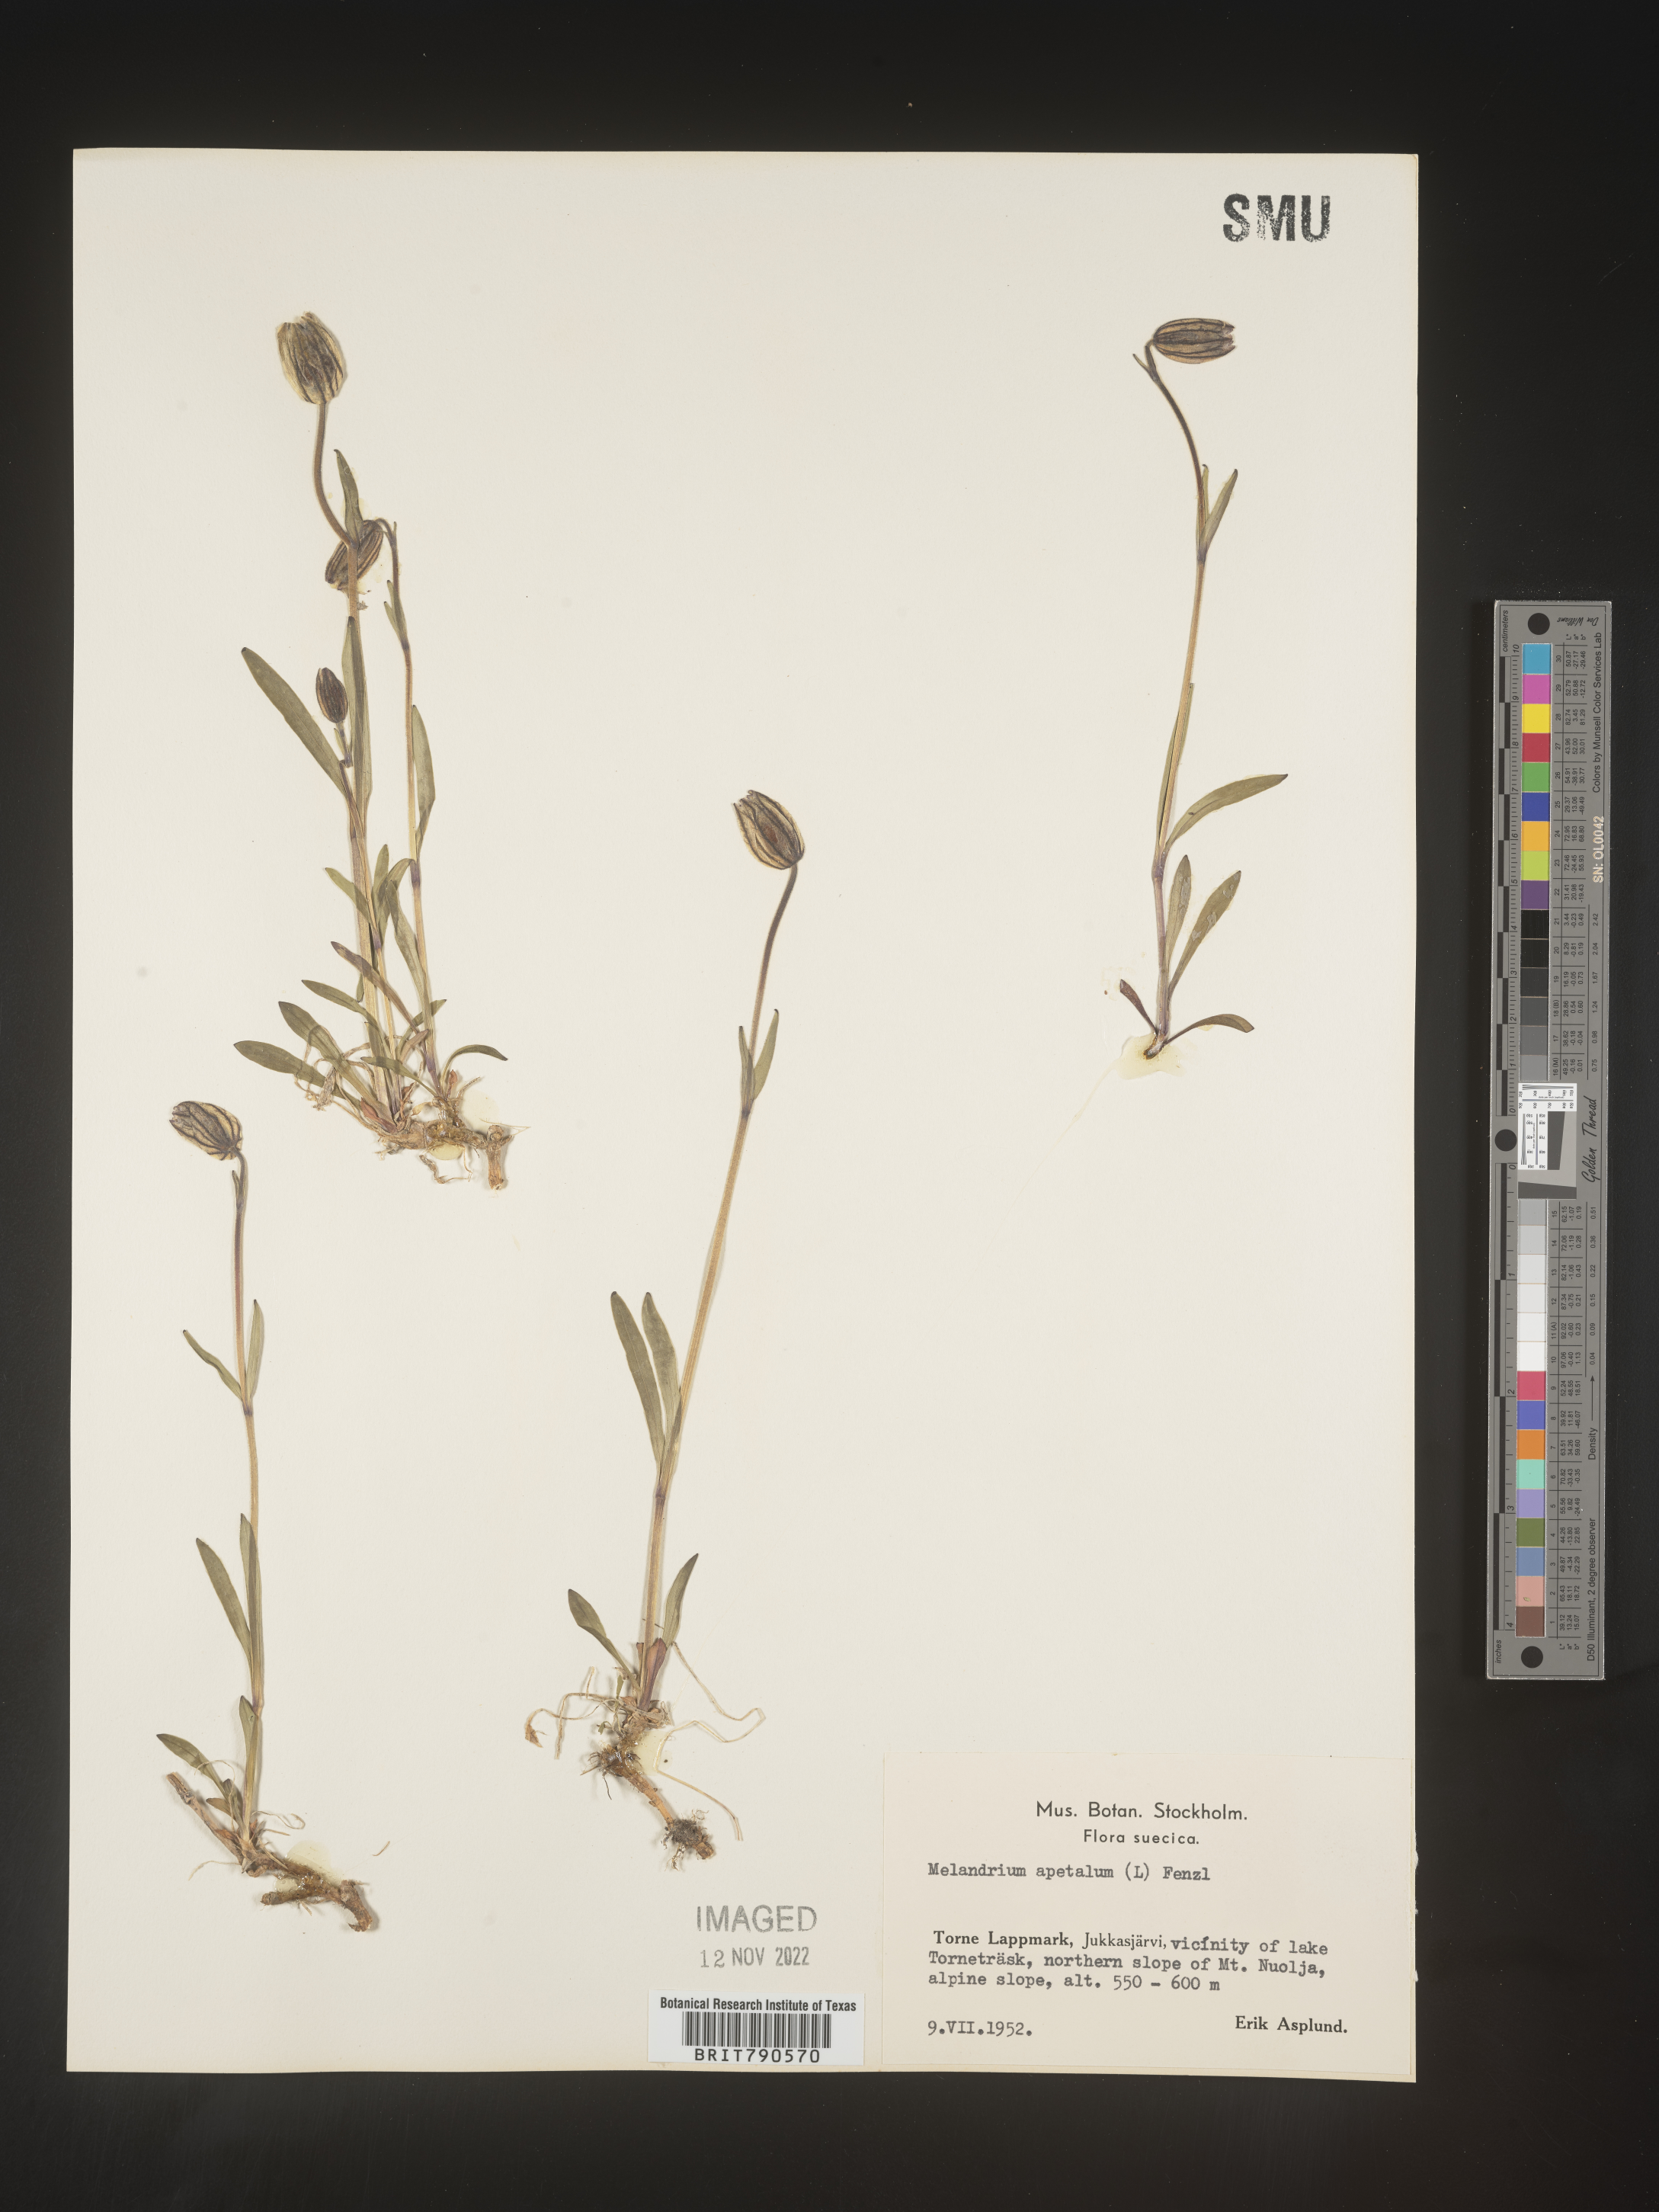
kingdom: Plantae
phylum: Tracheophyta
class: Magnoliopsida
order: Caryophyllales
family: Caryophyllaceae
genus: Silene
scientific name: Silene
